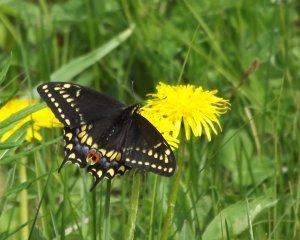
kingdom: Animalia
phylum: Arthropoda
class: Insecta
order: Lepidoptera
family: Papilionidae
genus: Papilio
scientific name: Papilio zelicaon
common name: Anise Swallowtail
